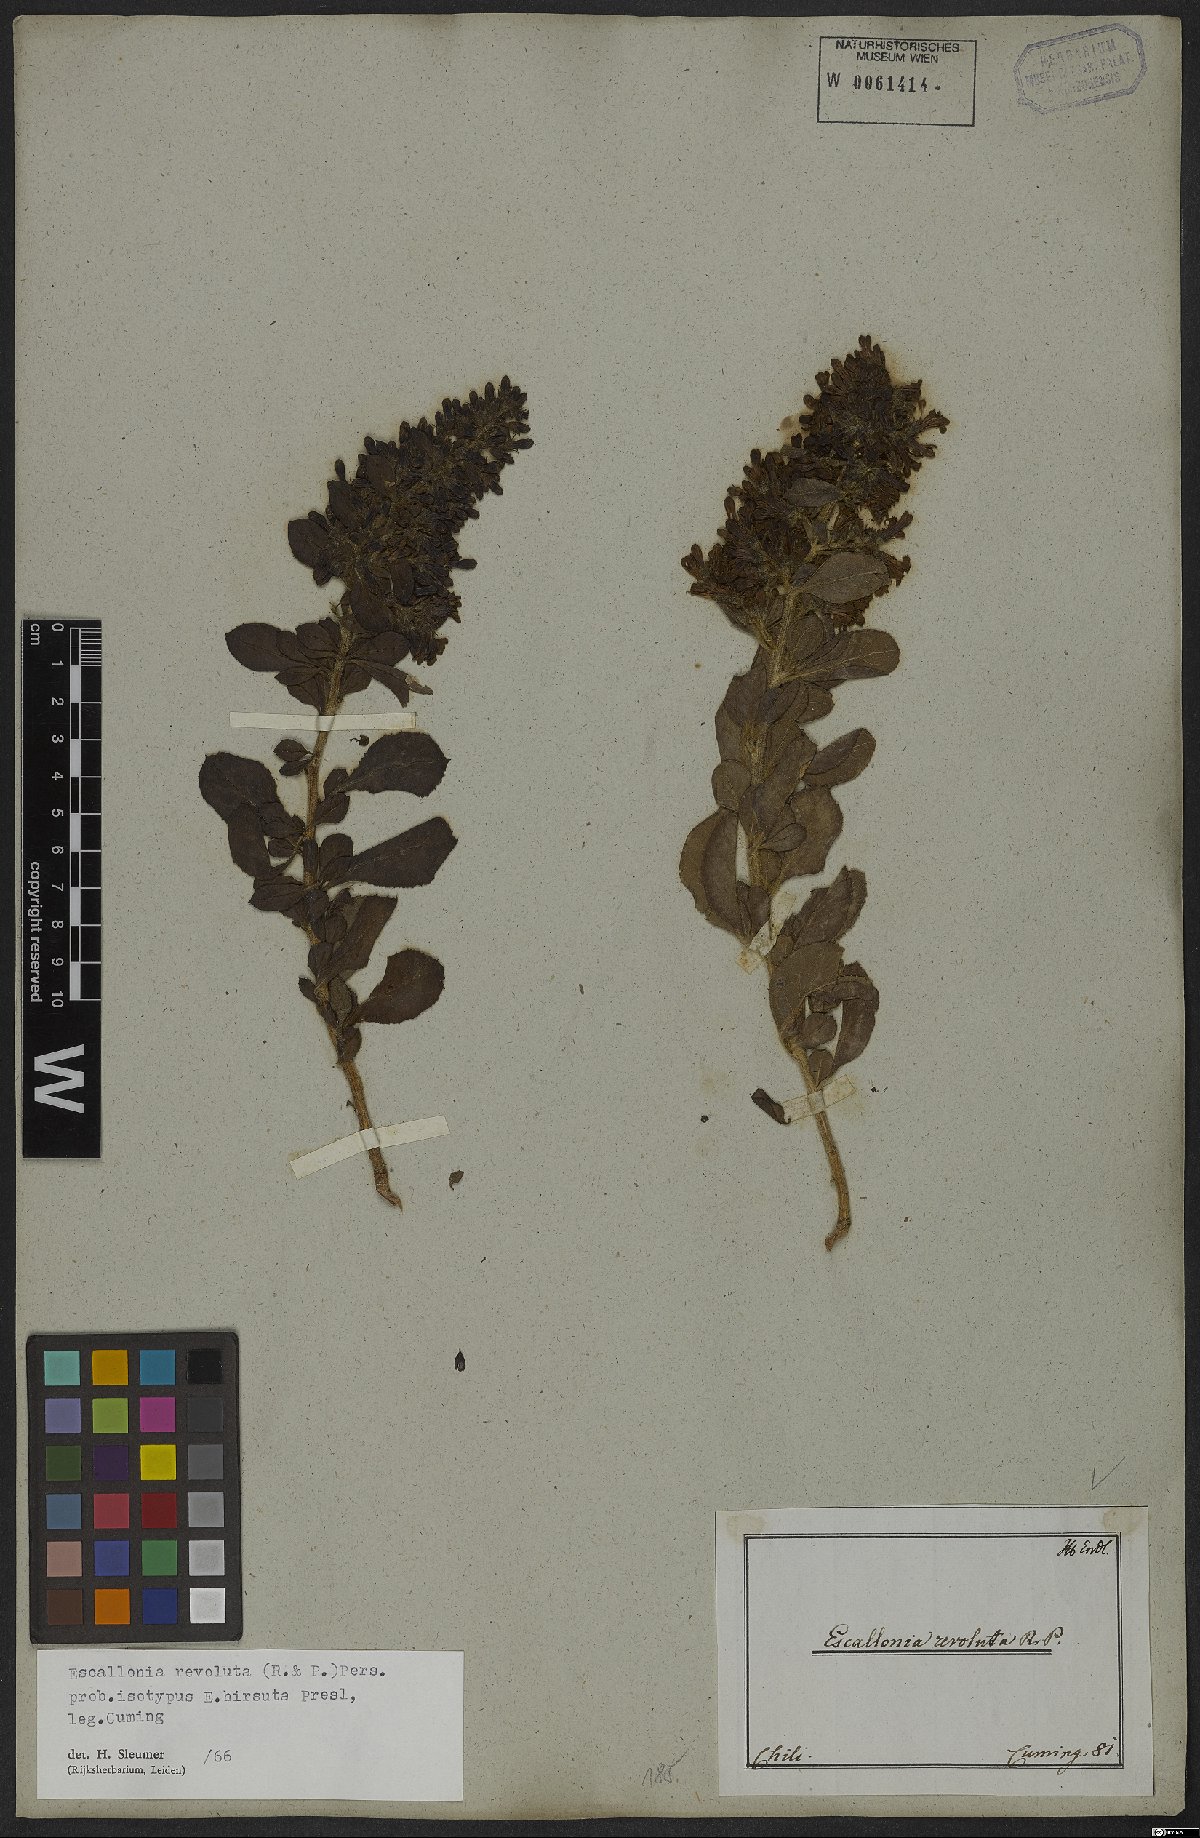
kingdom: Plantae
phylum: Tracheophyta
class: Magnoliopsida
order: Escalloniales
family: Escalloniaceae
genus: Escallonia
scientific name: Escallonia revoluta
